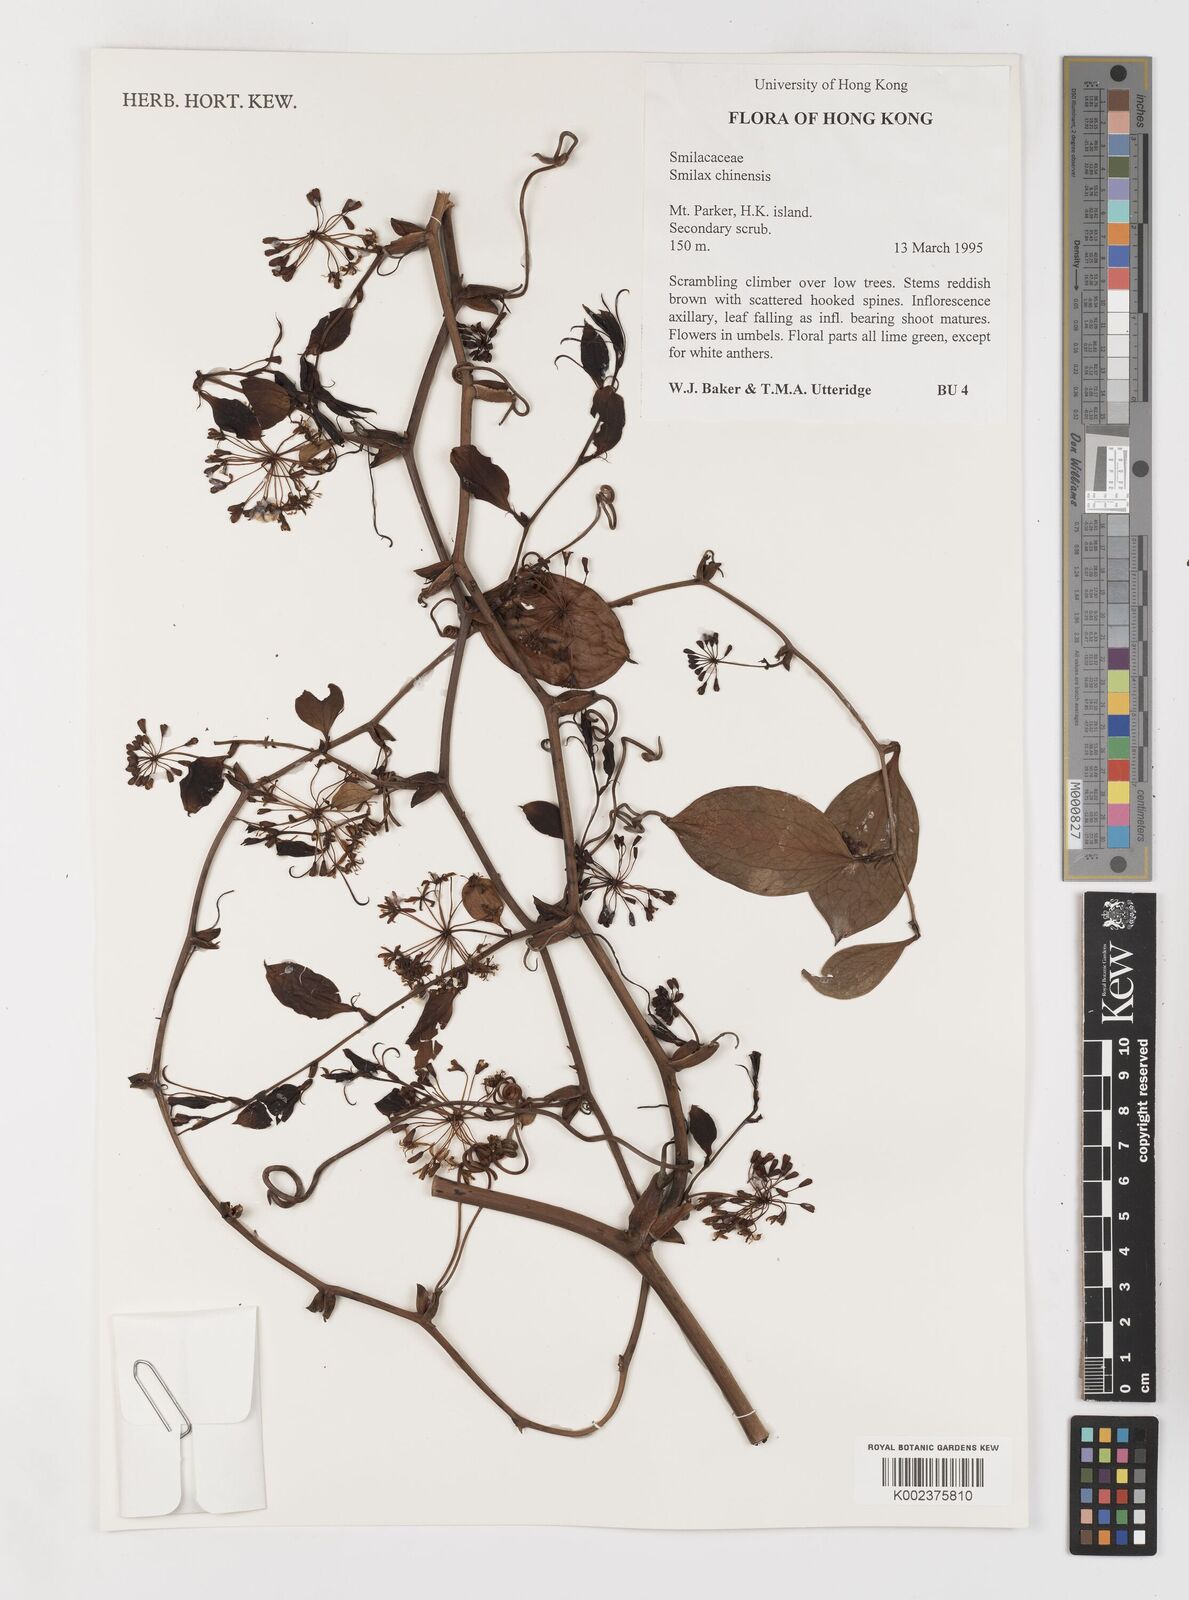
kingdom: Plantae
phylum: Tracheophyta
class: Liliopsida
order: Liliales
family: Smilacaceae
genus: Smilax
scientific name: Smilax china
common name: Chinaroot
